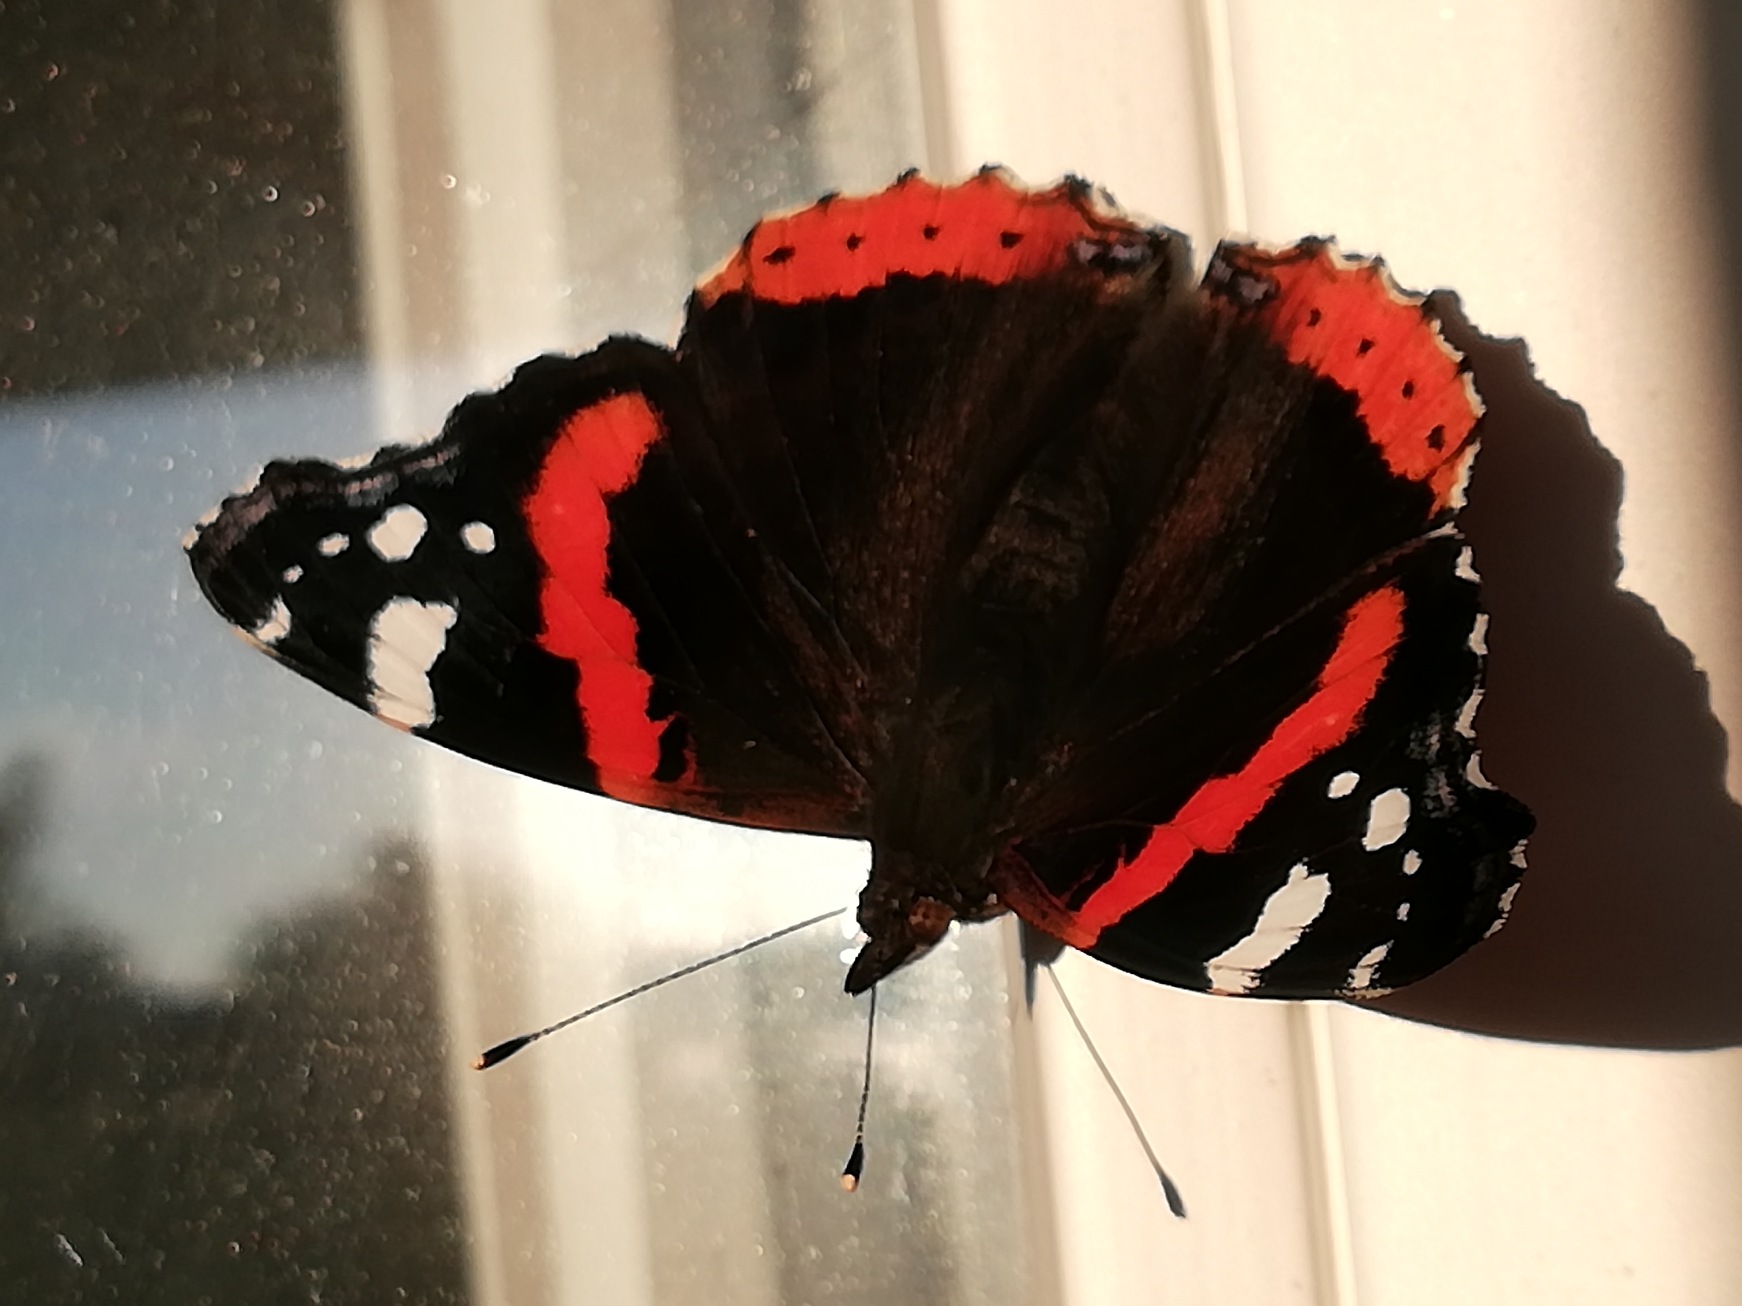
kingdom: Animalia
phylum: Arthropoda
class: Insecta
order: Lepidoptera
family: Nymphalidae
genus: Vanessa
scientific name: Vanessa atalanta
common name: Admiral
